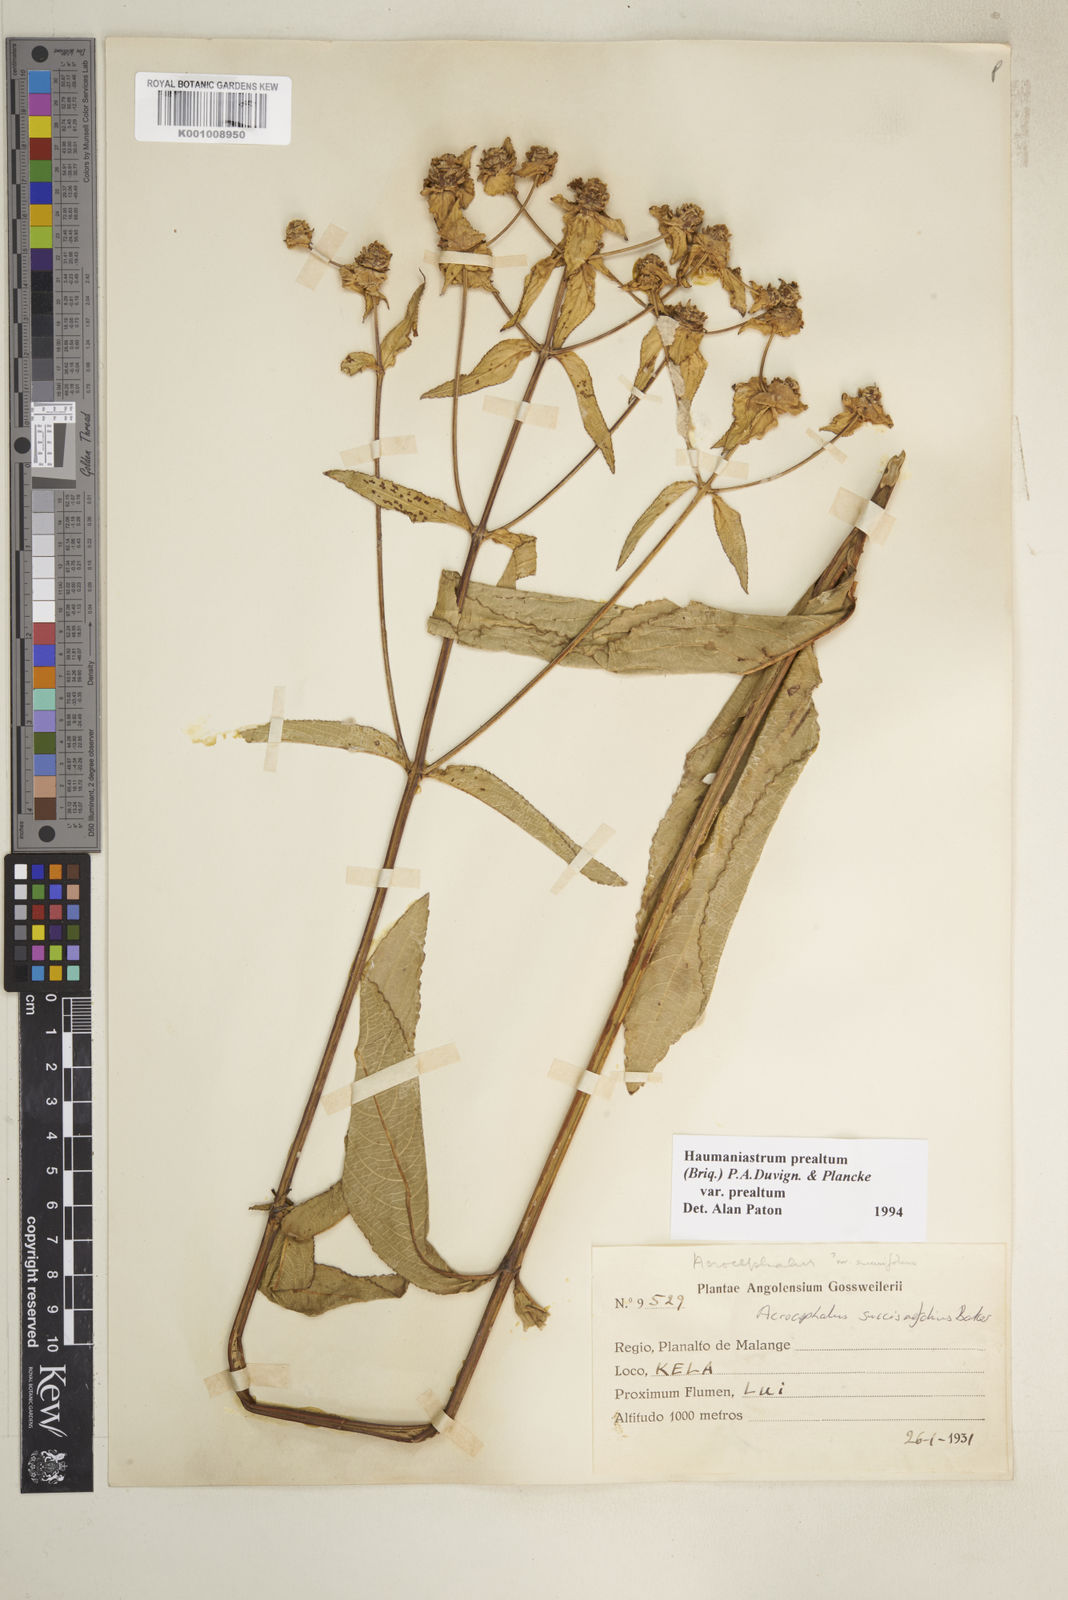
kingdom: Plantae
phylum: Tracheophyta
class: Magnoliopsida
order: Lamiales
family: Lamiaceae
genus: Haumaniastrum
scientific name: Haumaniastrum
